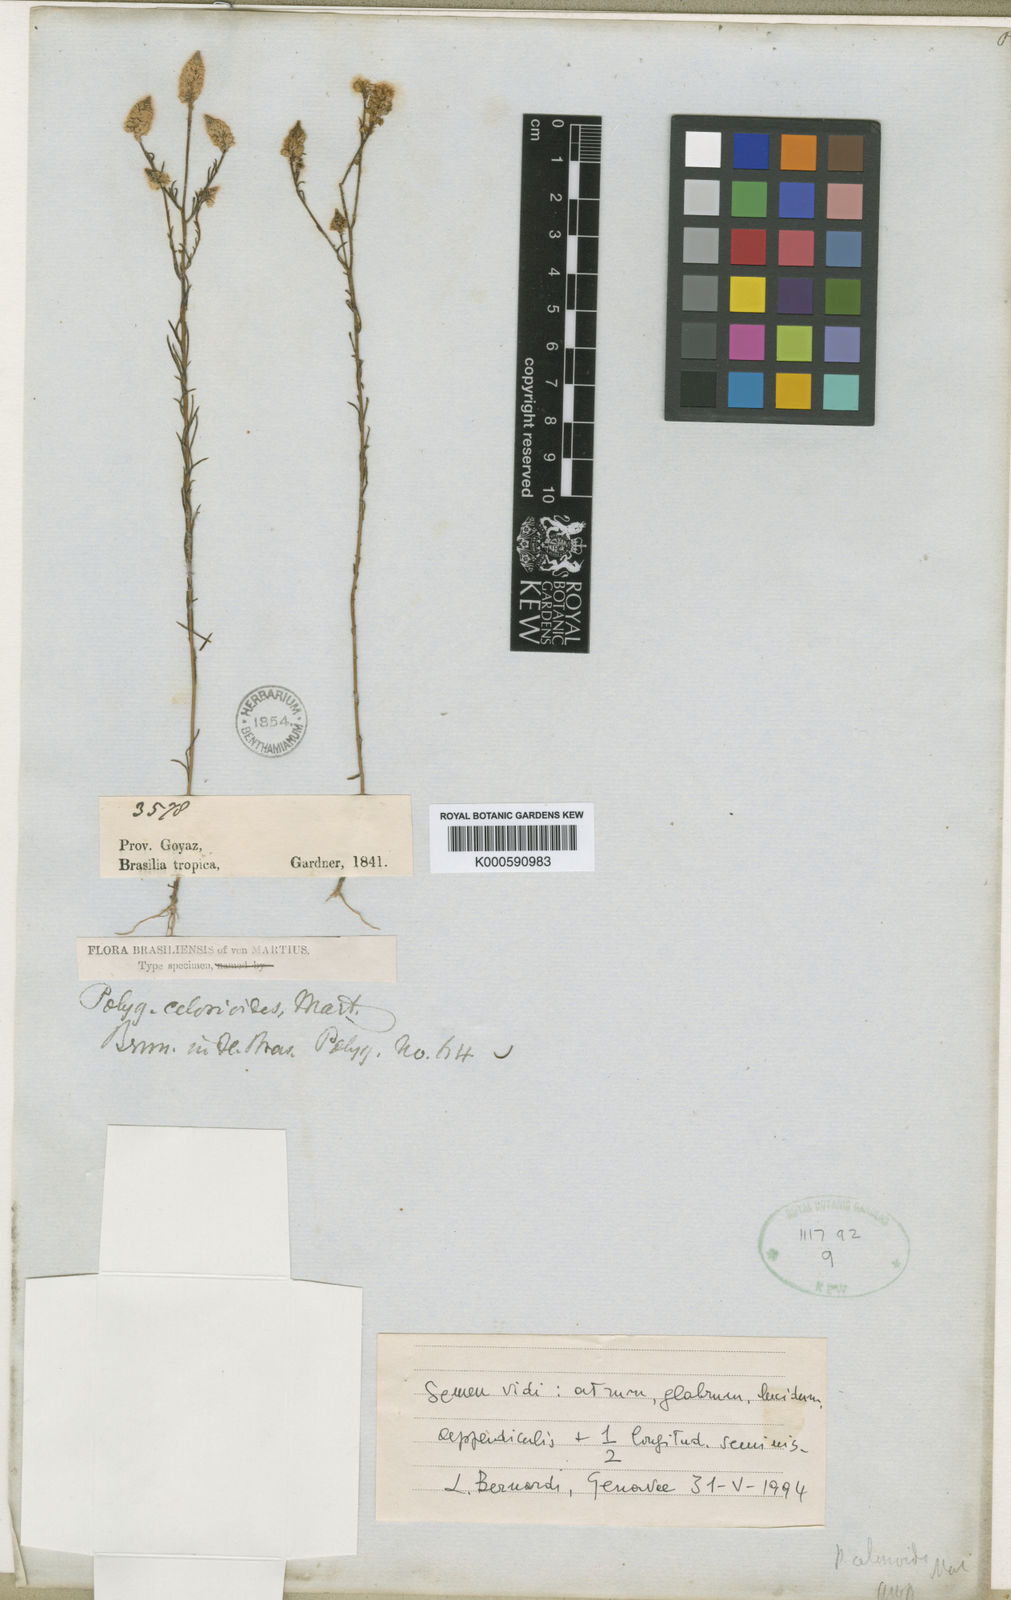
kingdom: Plantae
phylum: Tracheophyta
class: Magnoliopsida
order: Fabales
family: Polygalaceae
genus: Polygala
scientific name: Polygala celosioides
